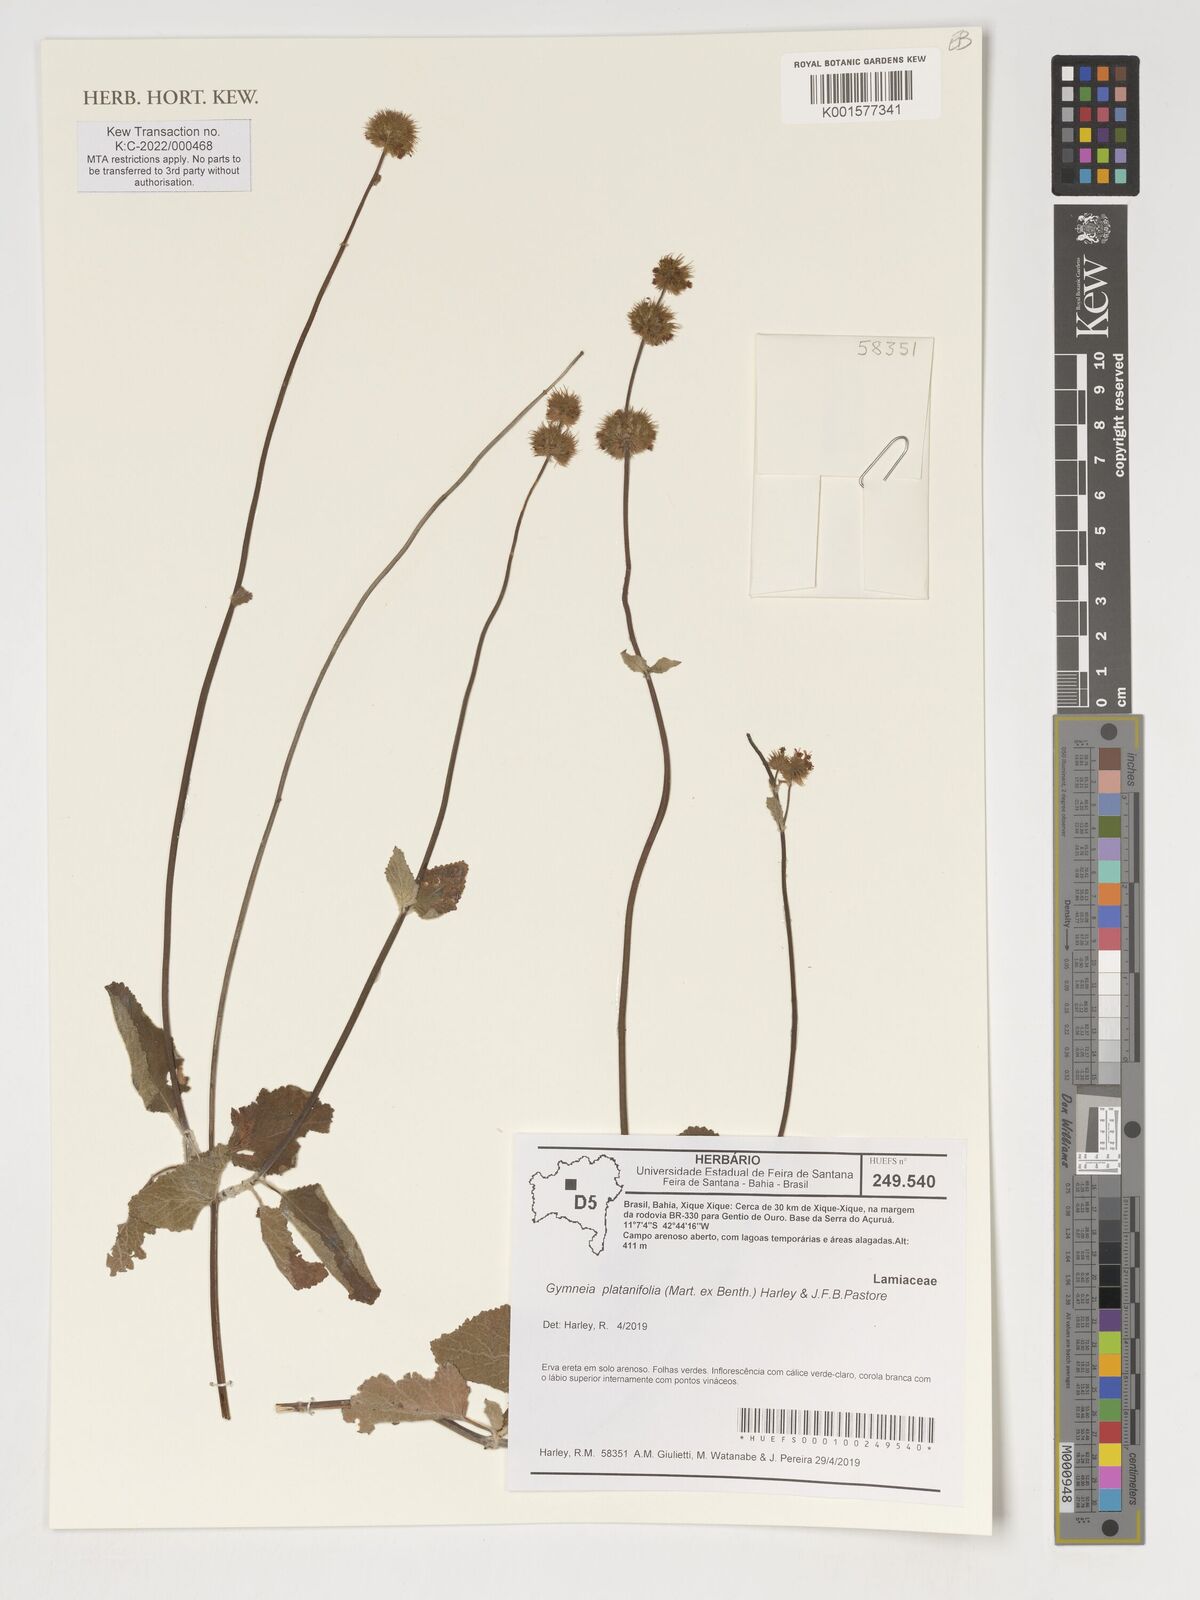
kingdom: Plantae
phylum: Tracheophyta
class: Magnoliopsida
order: Lamiales
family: Lamiaceae
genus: Gymneia
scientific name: Gymneia platanifolia
